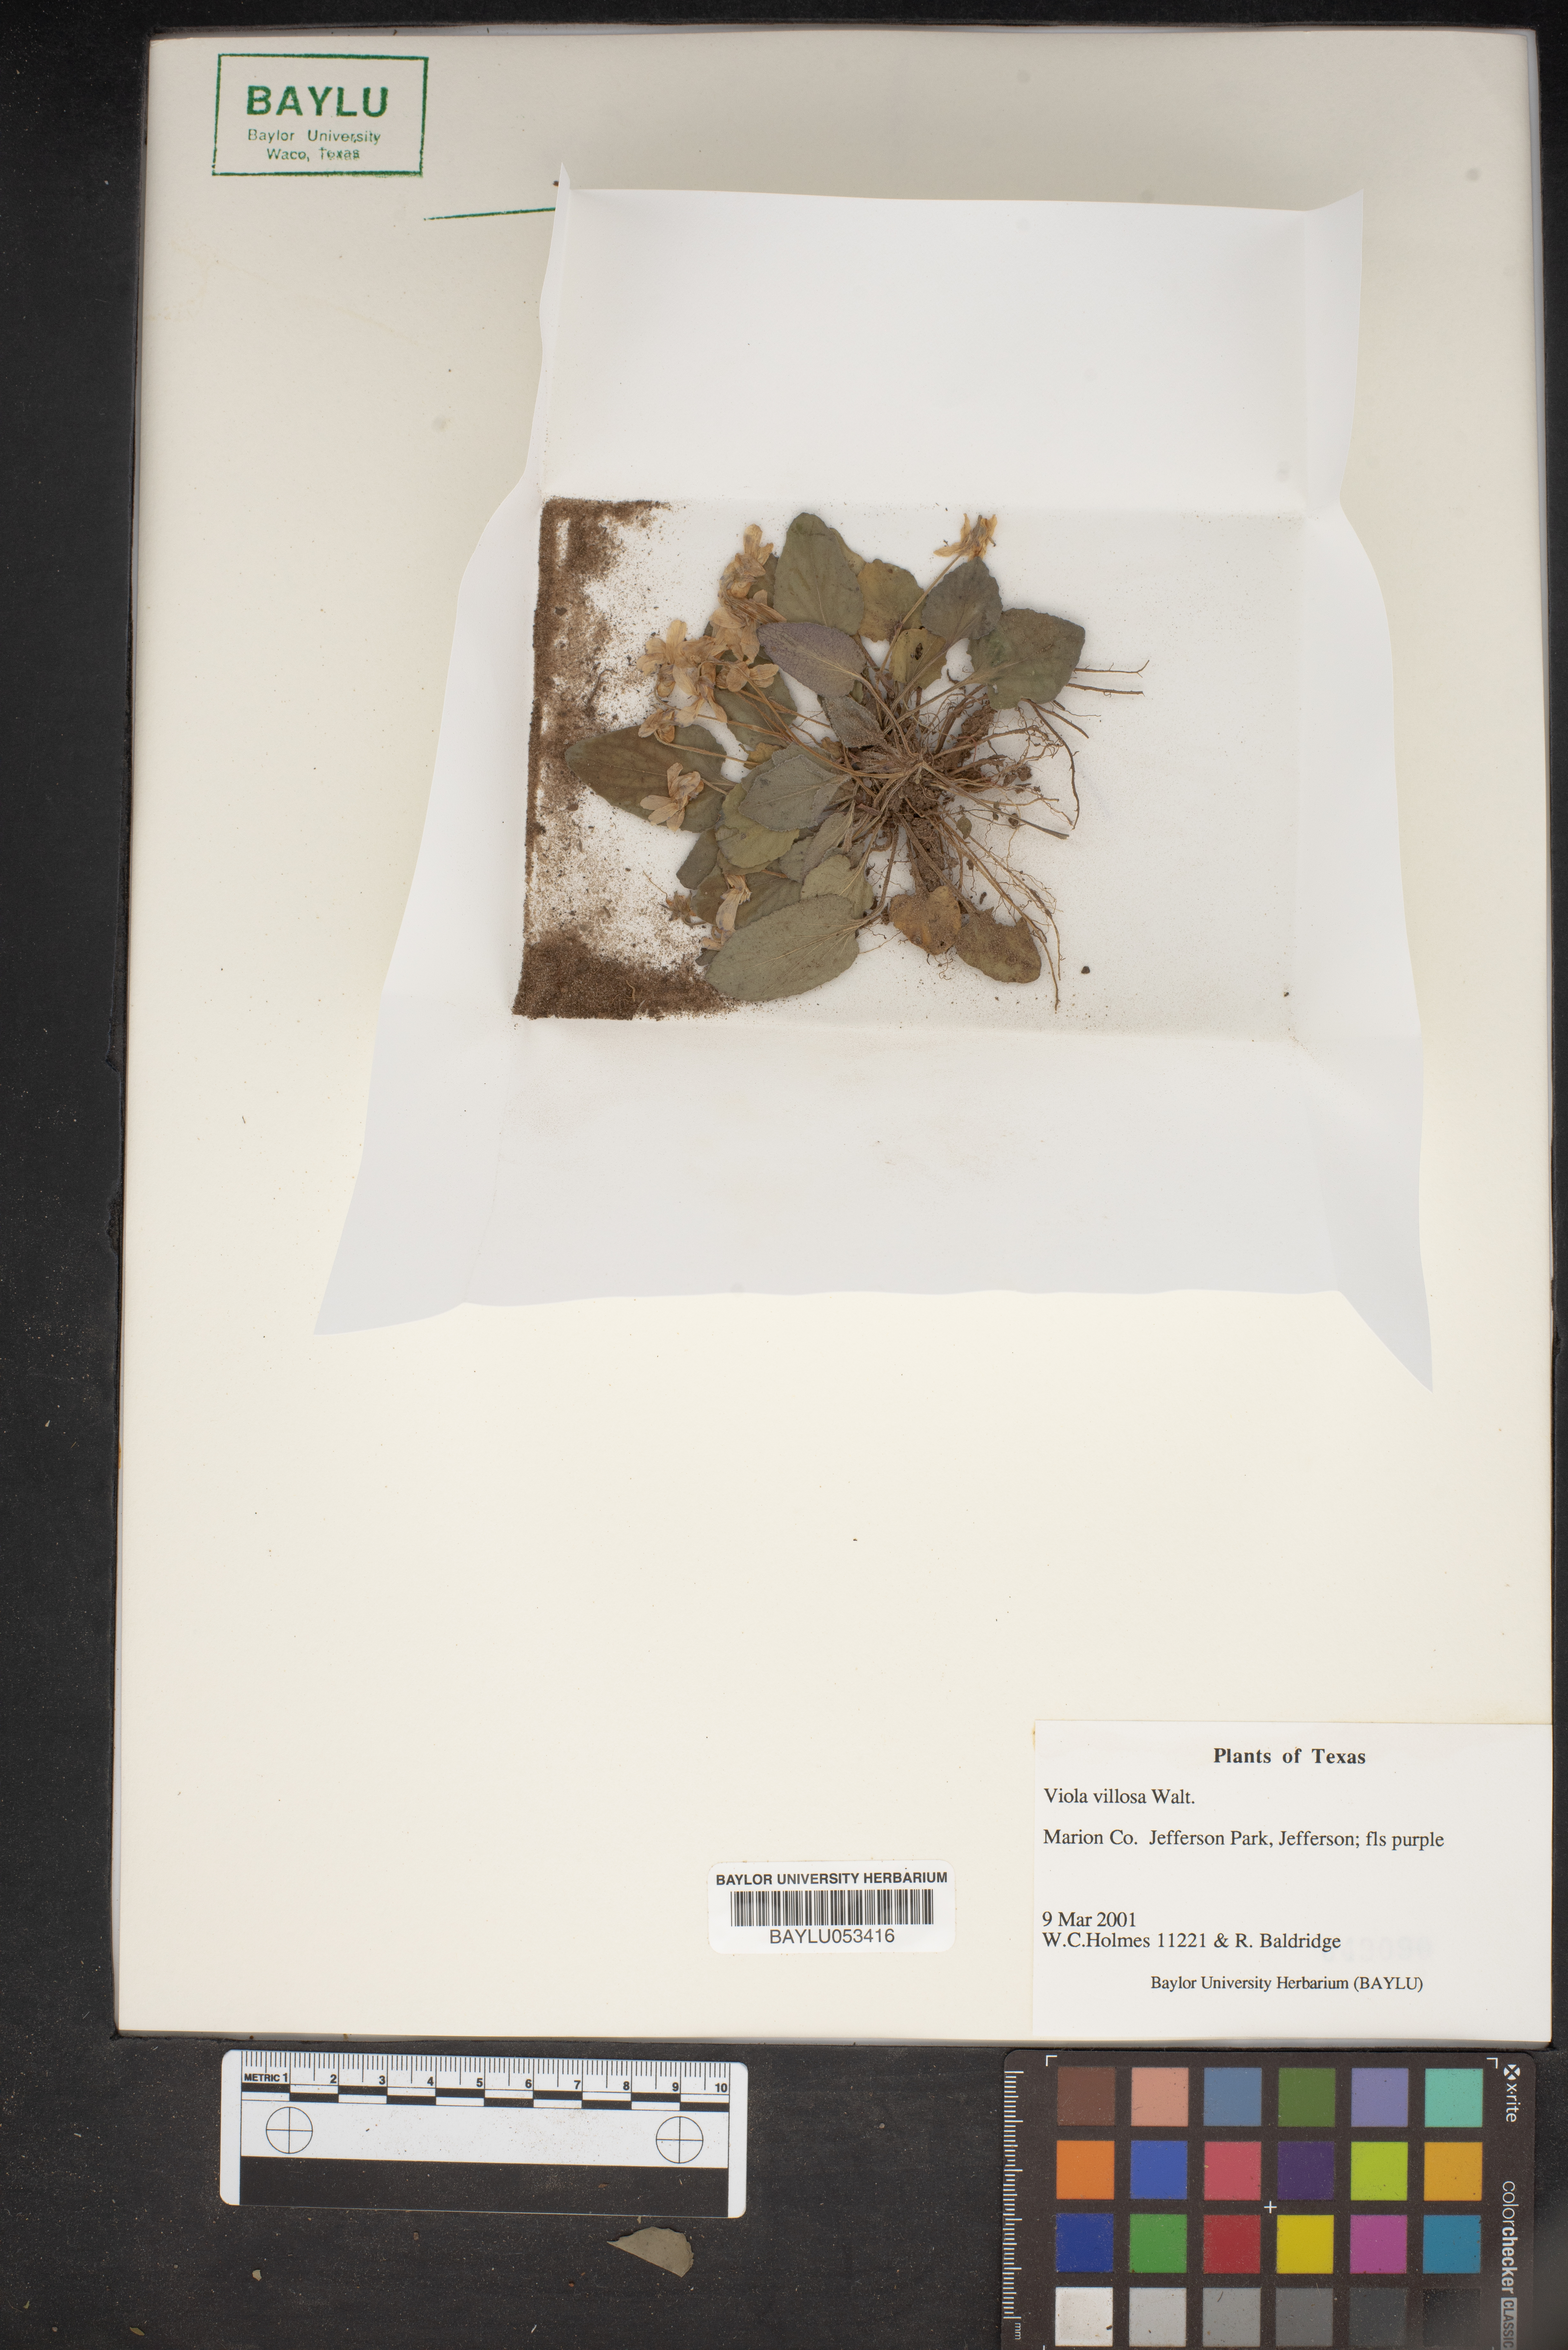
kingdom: Plantae
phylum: Tracheophyta
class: Magnoliopsida
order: Malpighiales
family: Violaceae
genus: Viola
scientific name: Viola villosa
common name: Carolina violet
